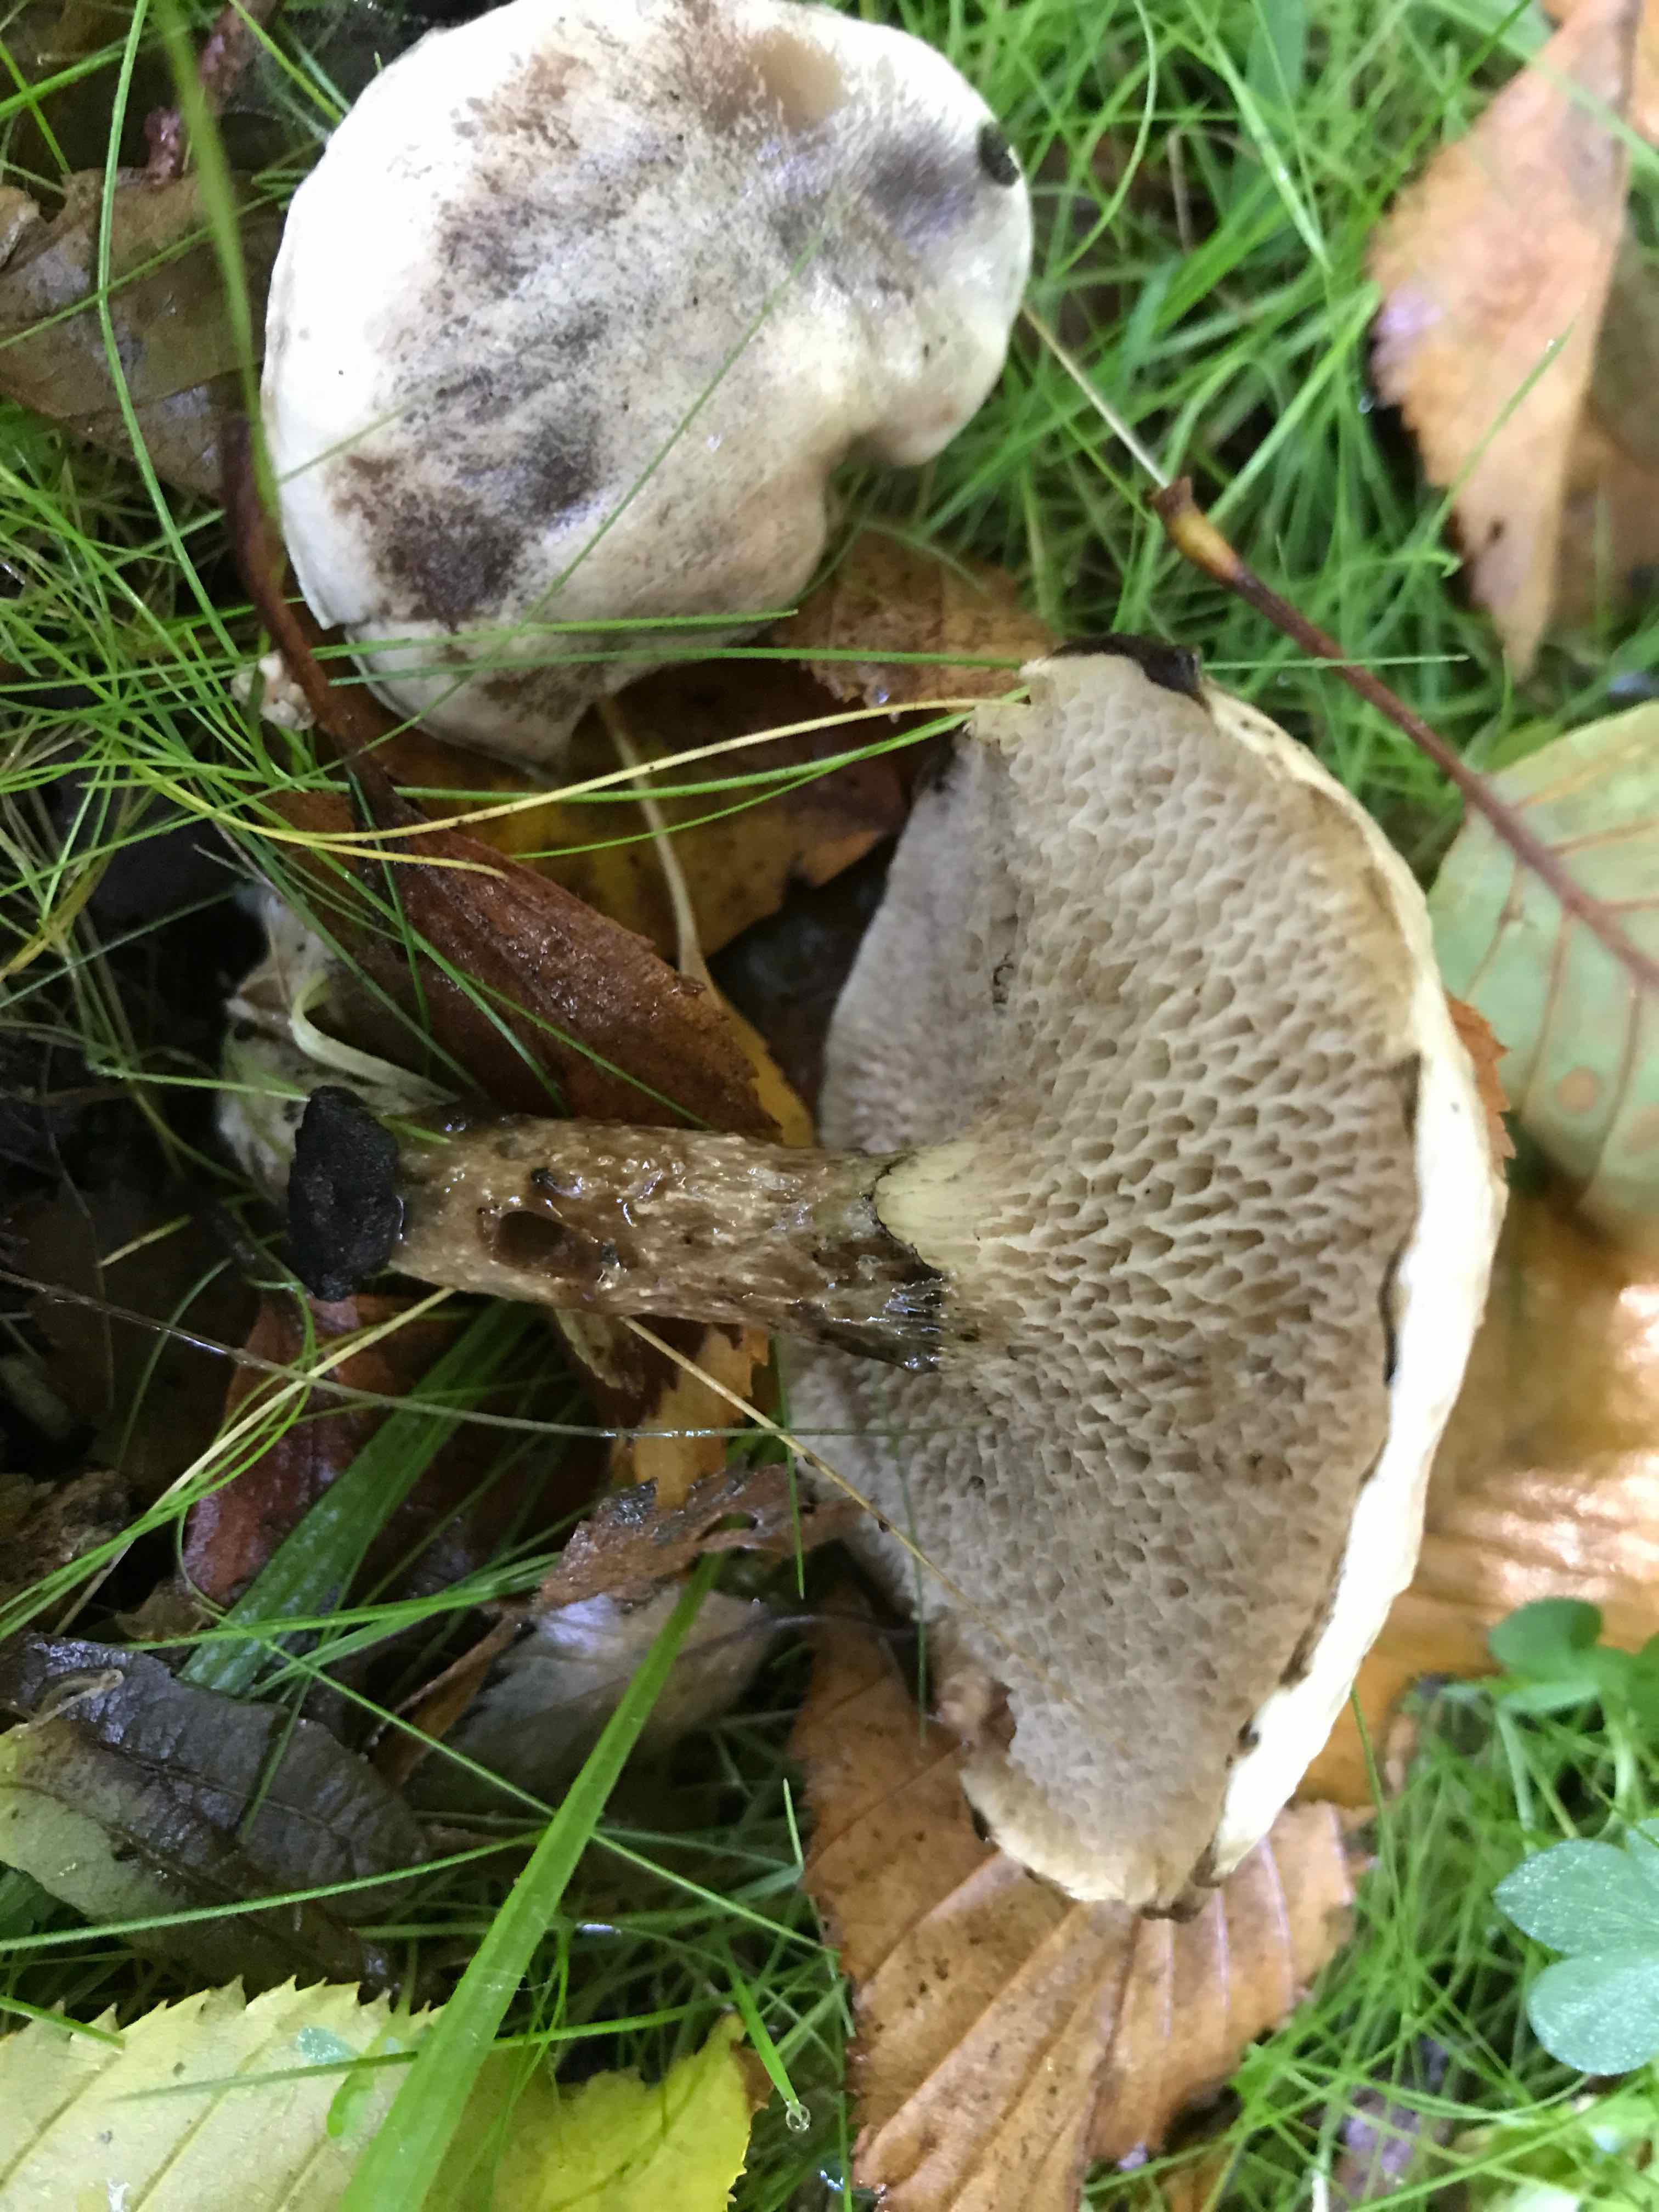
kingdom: Fungi
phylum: Basidiomycota
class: Agaricomycetes
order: Boletales
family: Suillaceae
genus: Suillus
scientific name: Suillus viscidus
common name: olivengrå slimrørhat
